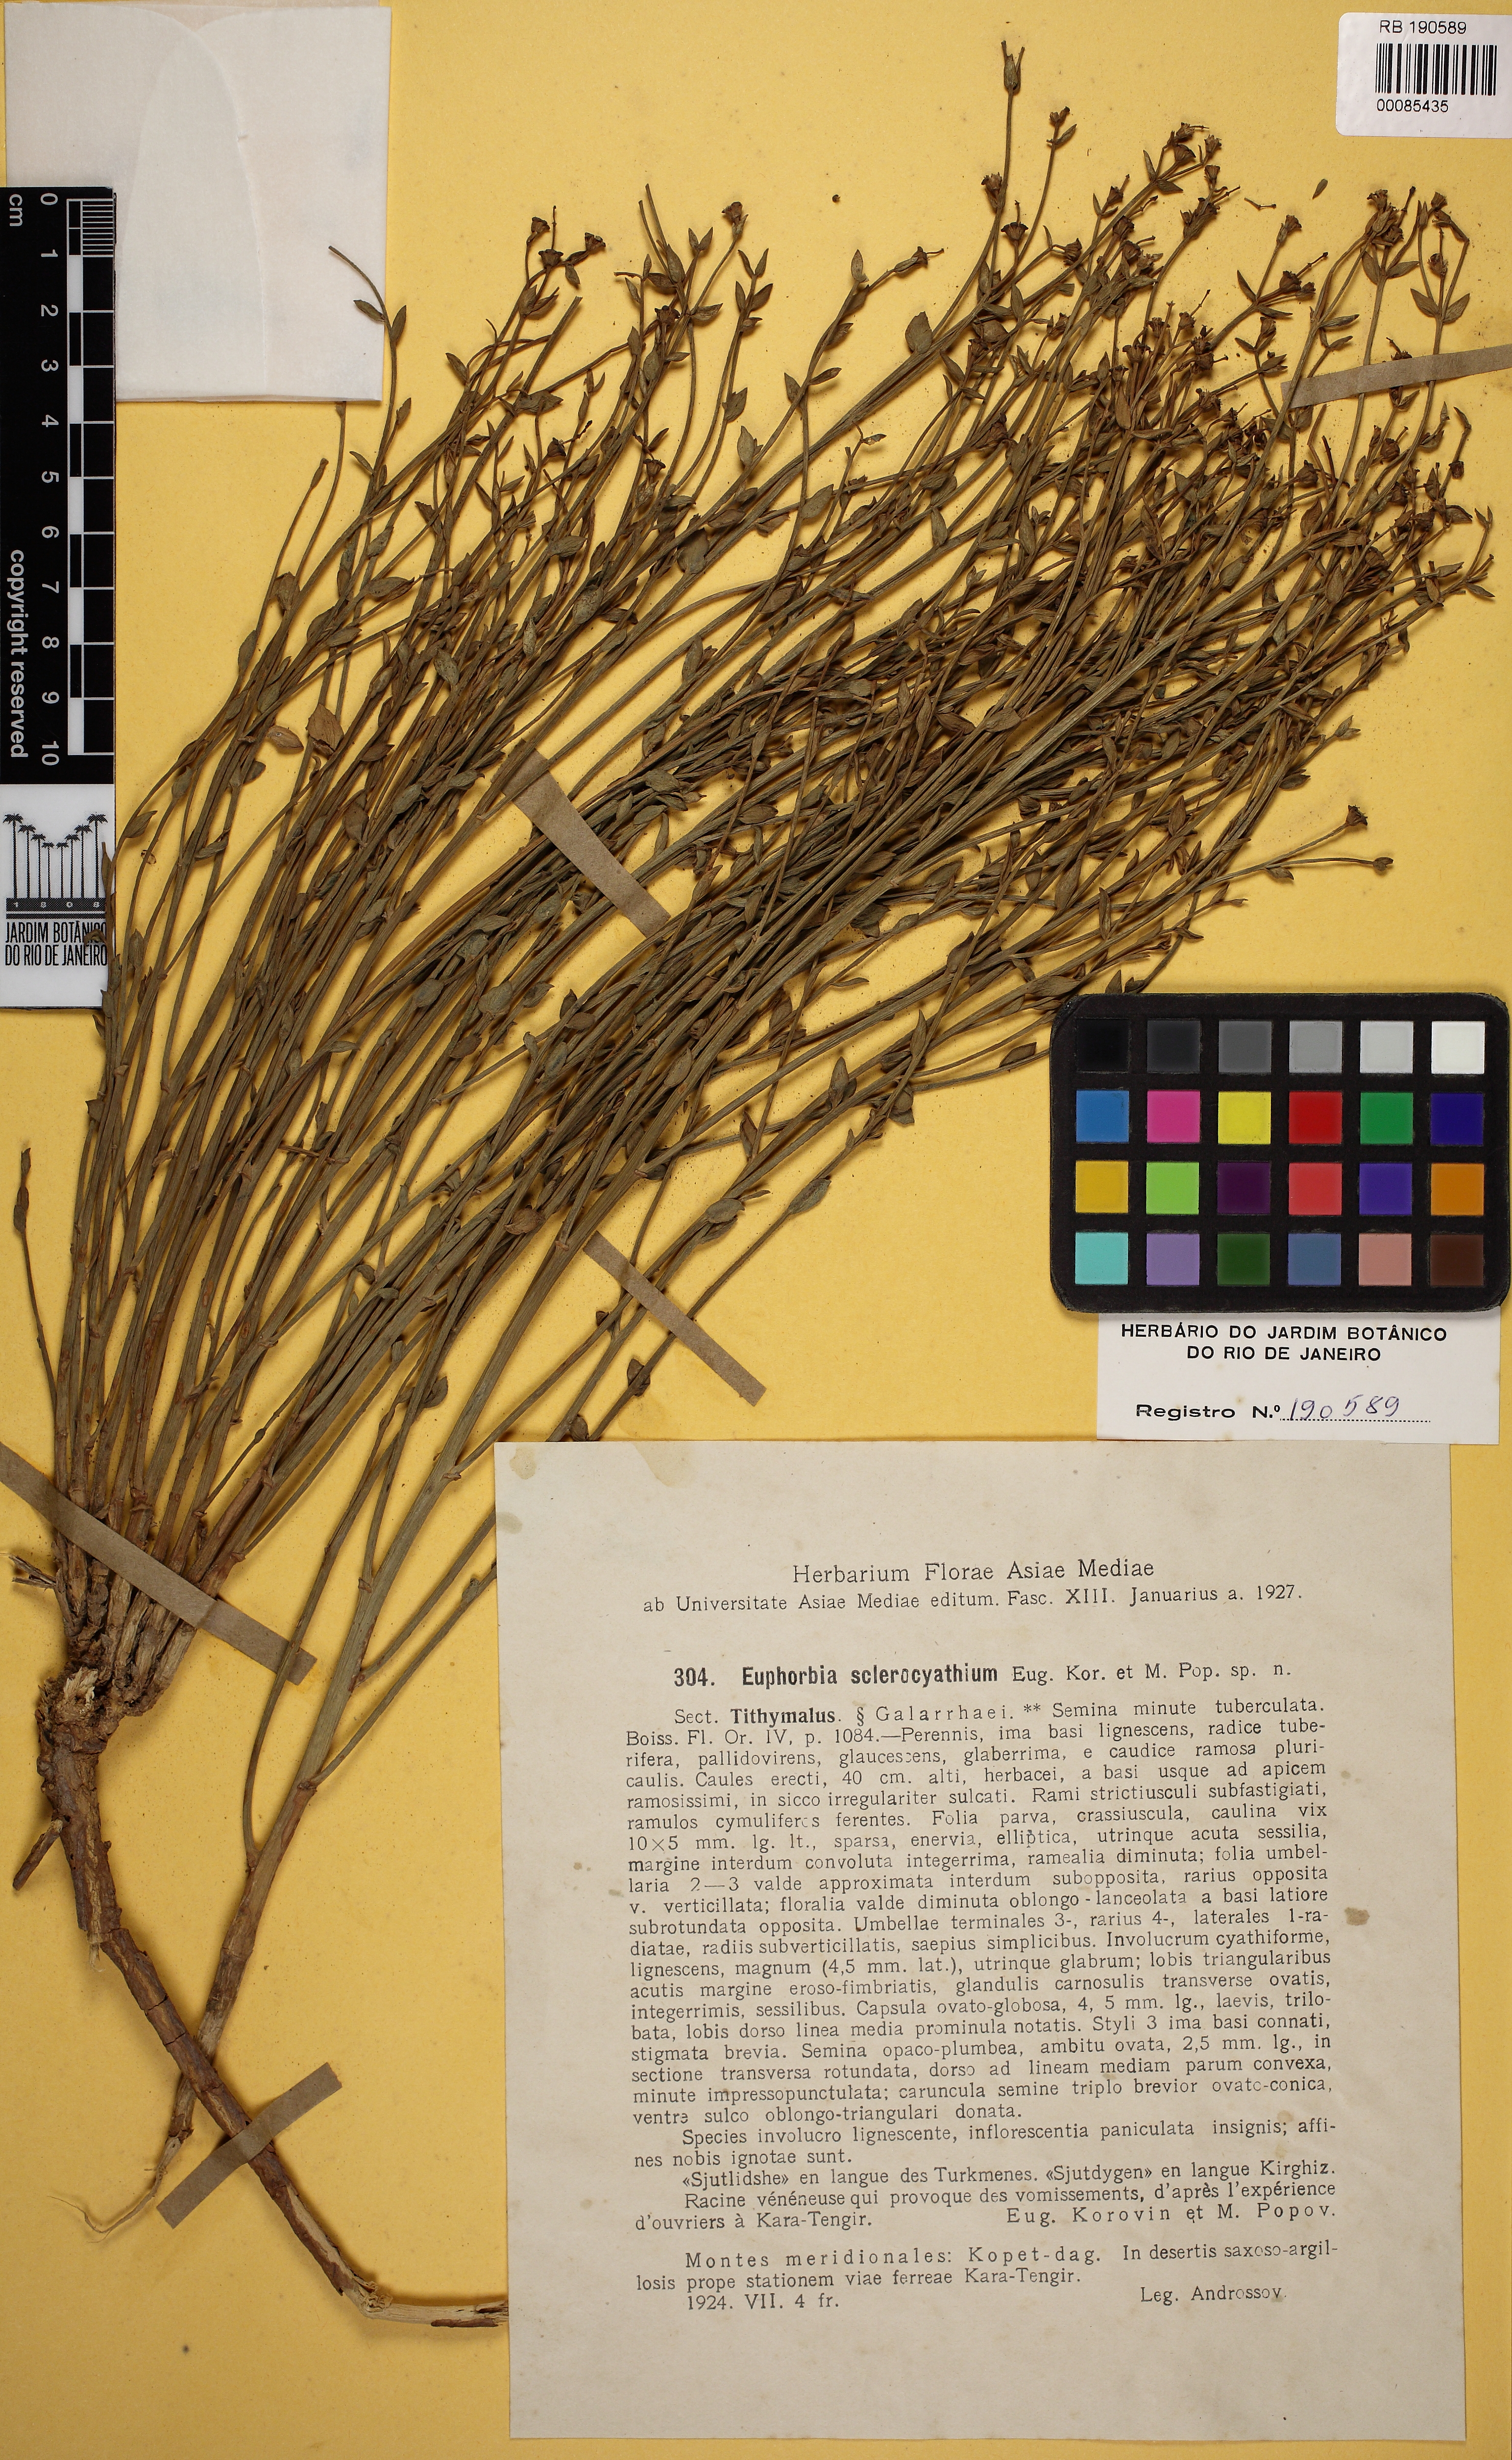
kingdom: Plantae
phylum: Tracheophyta
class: Magnoliopsida
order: Malpighiales
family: Euphorbiaceae
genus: Euphorbia
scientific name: Euphorbia sclerocyathium
